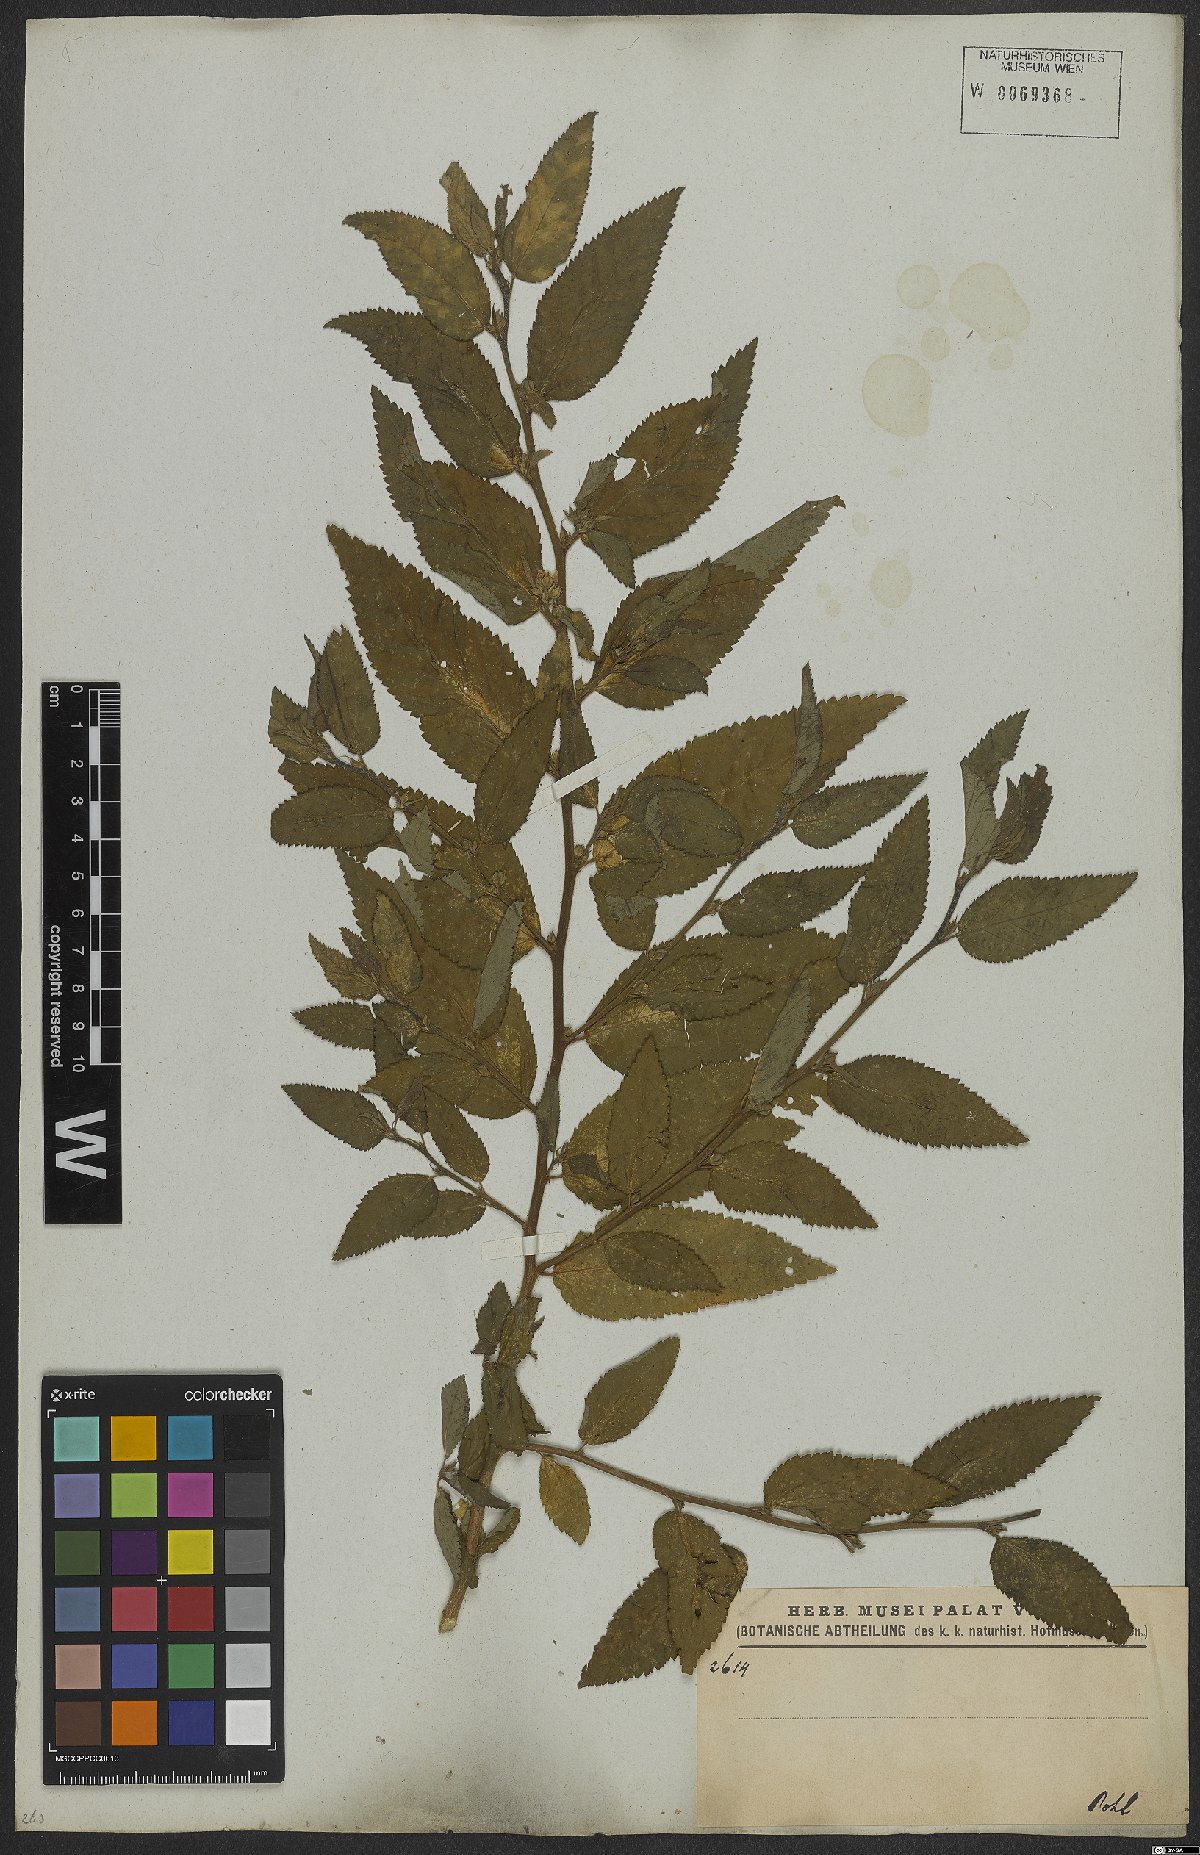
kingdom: Plantae
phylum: Tracheophyta
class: Magnoliopsida
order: Malvales
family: Malvaceae
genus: Sida
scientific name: Sida
